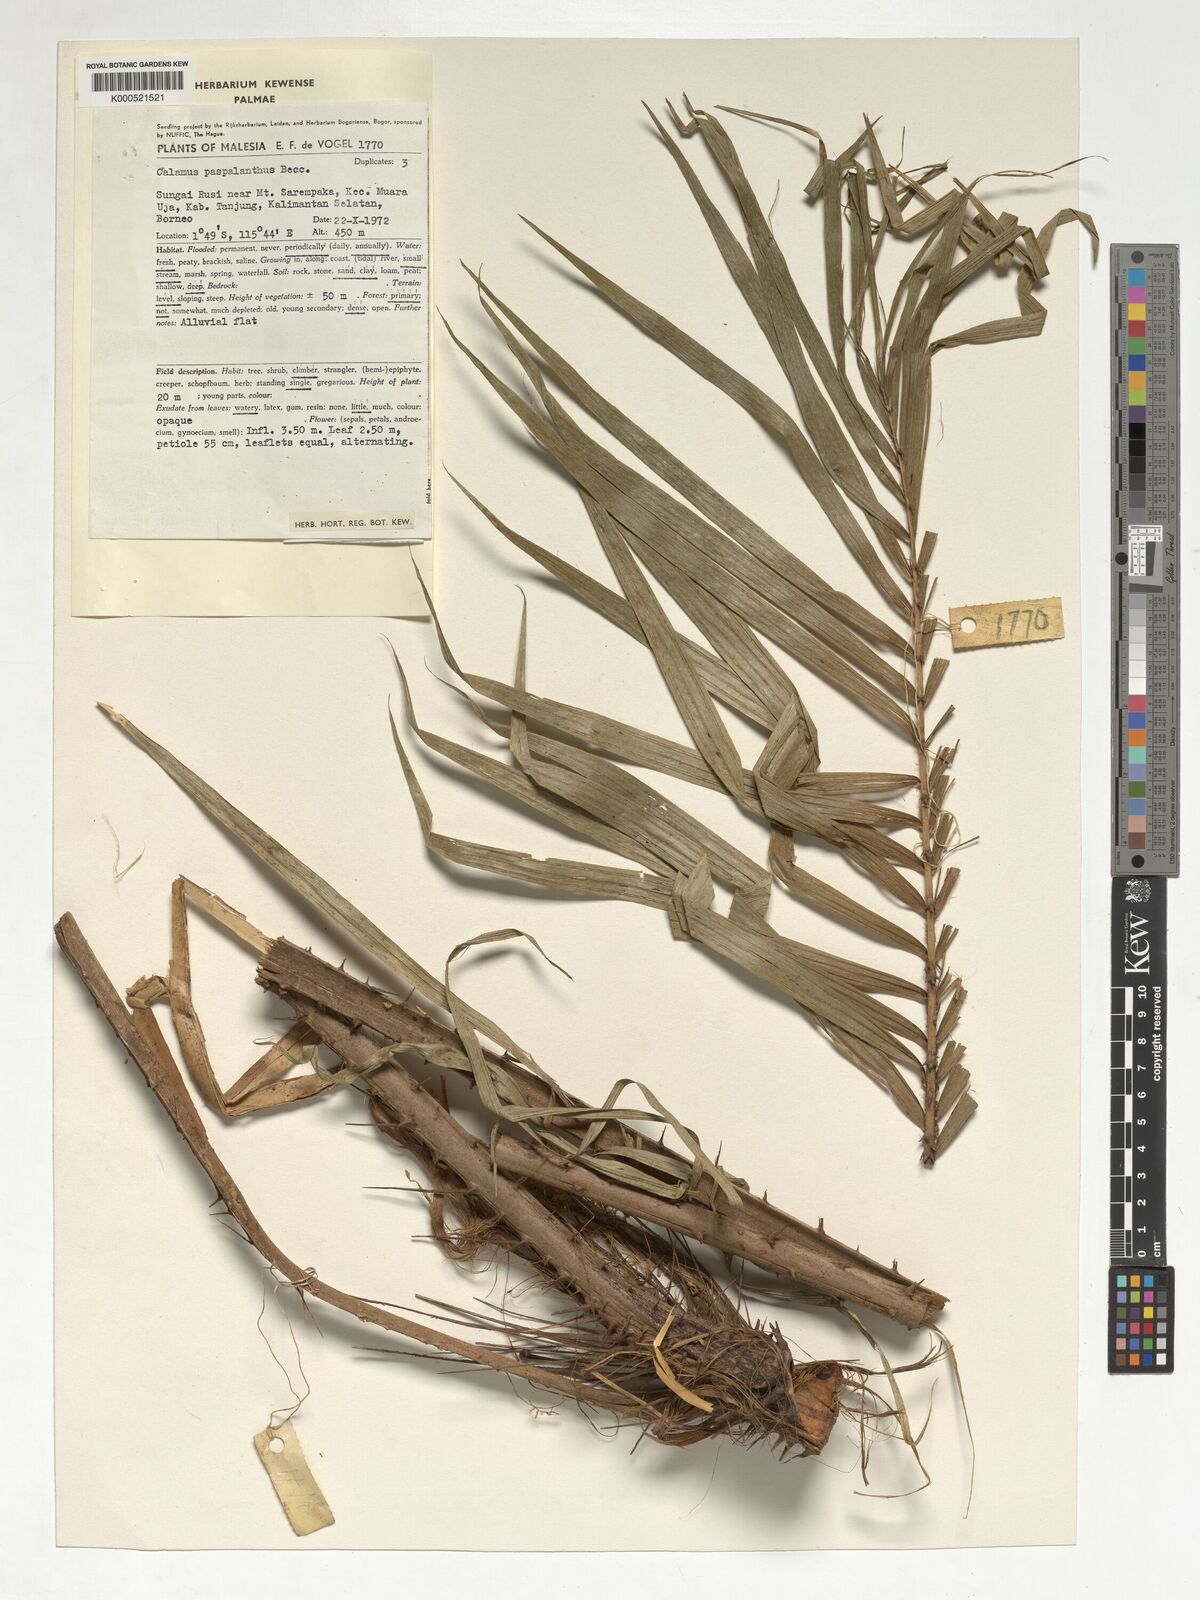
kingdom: Plantae
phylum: Tracheophyta
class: Liliopsida
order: Arecales
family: Arecaceae
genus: Calamus
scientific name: Calamus paspalanthus
